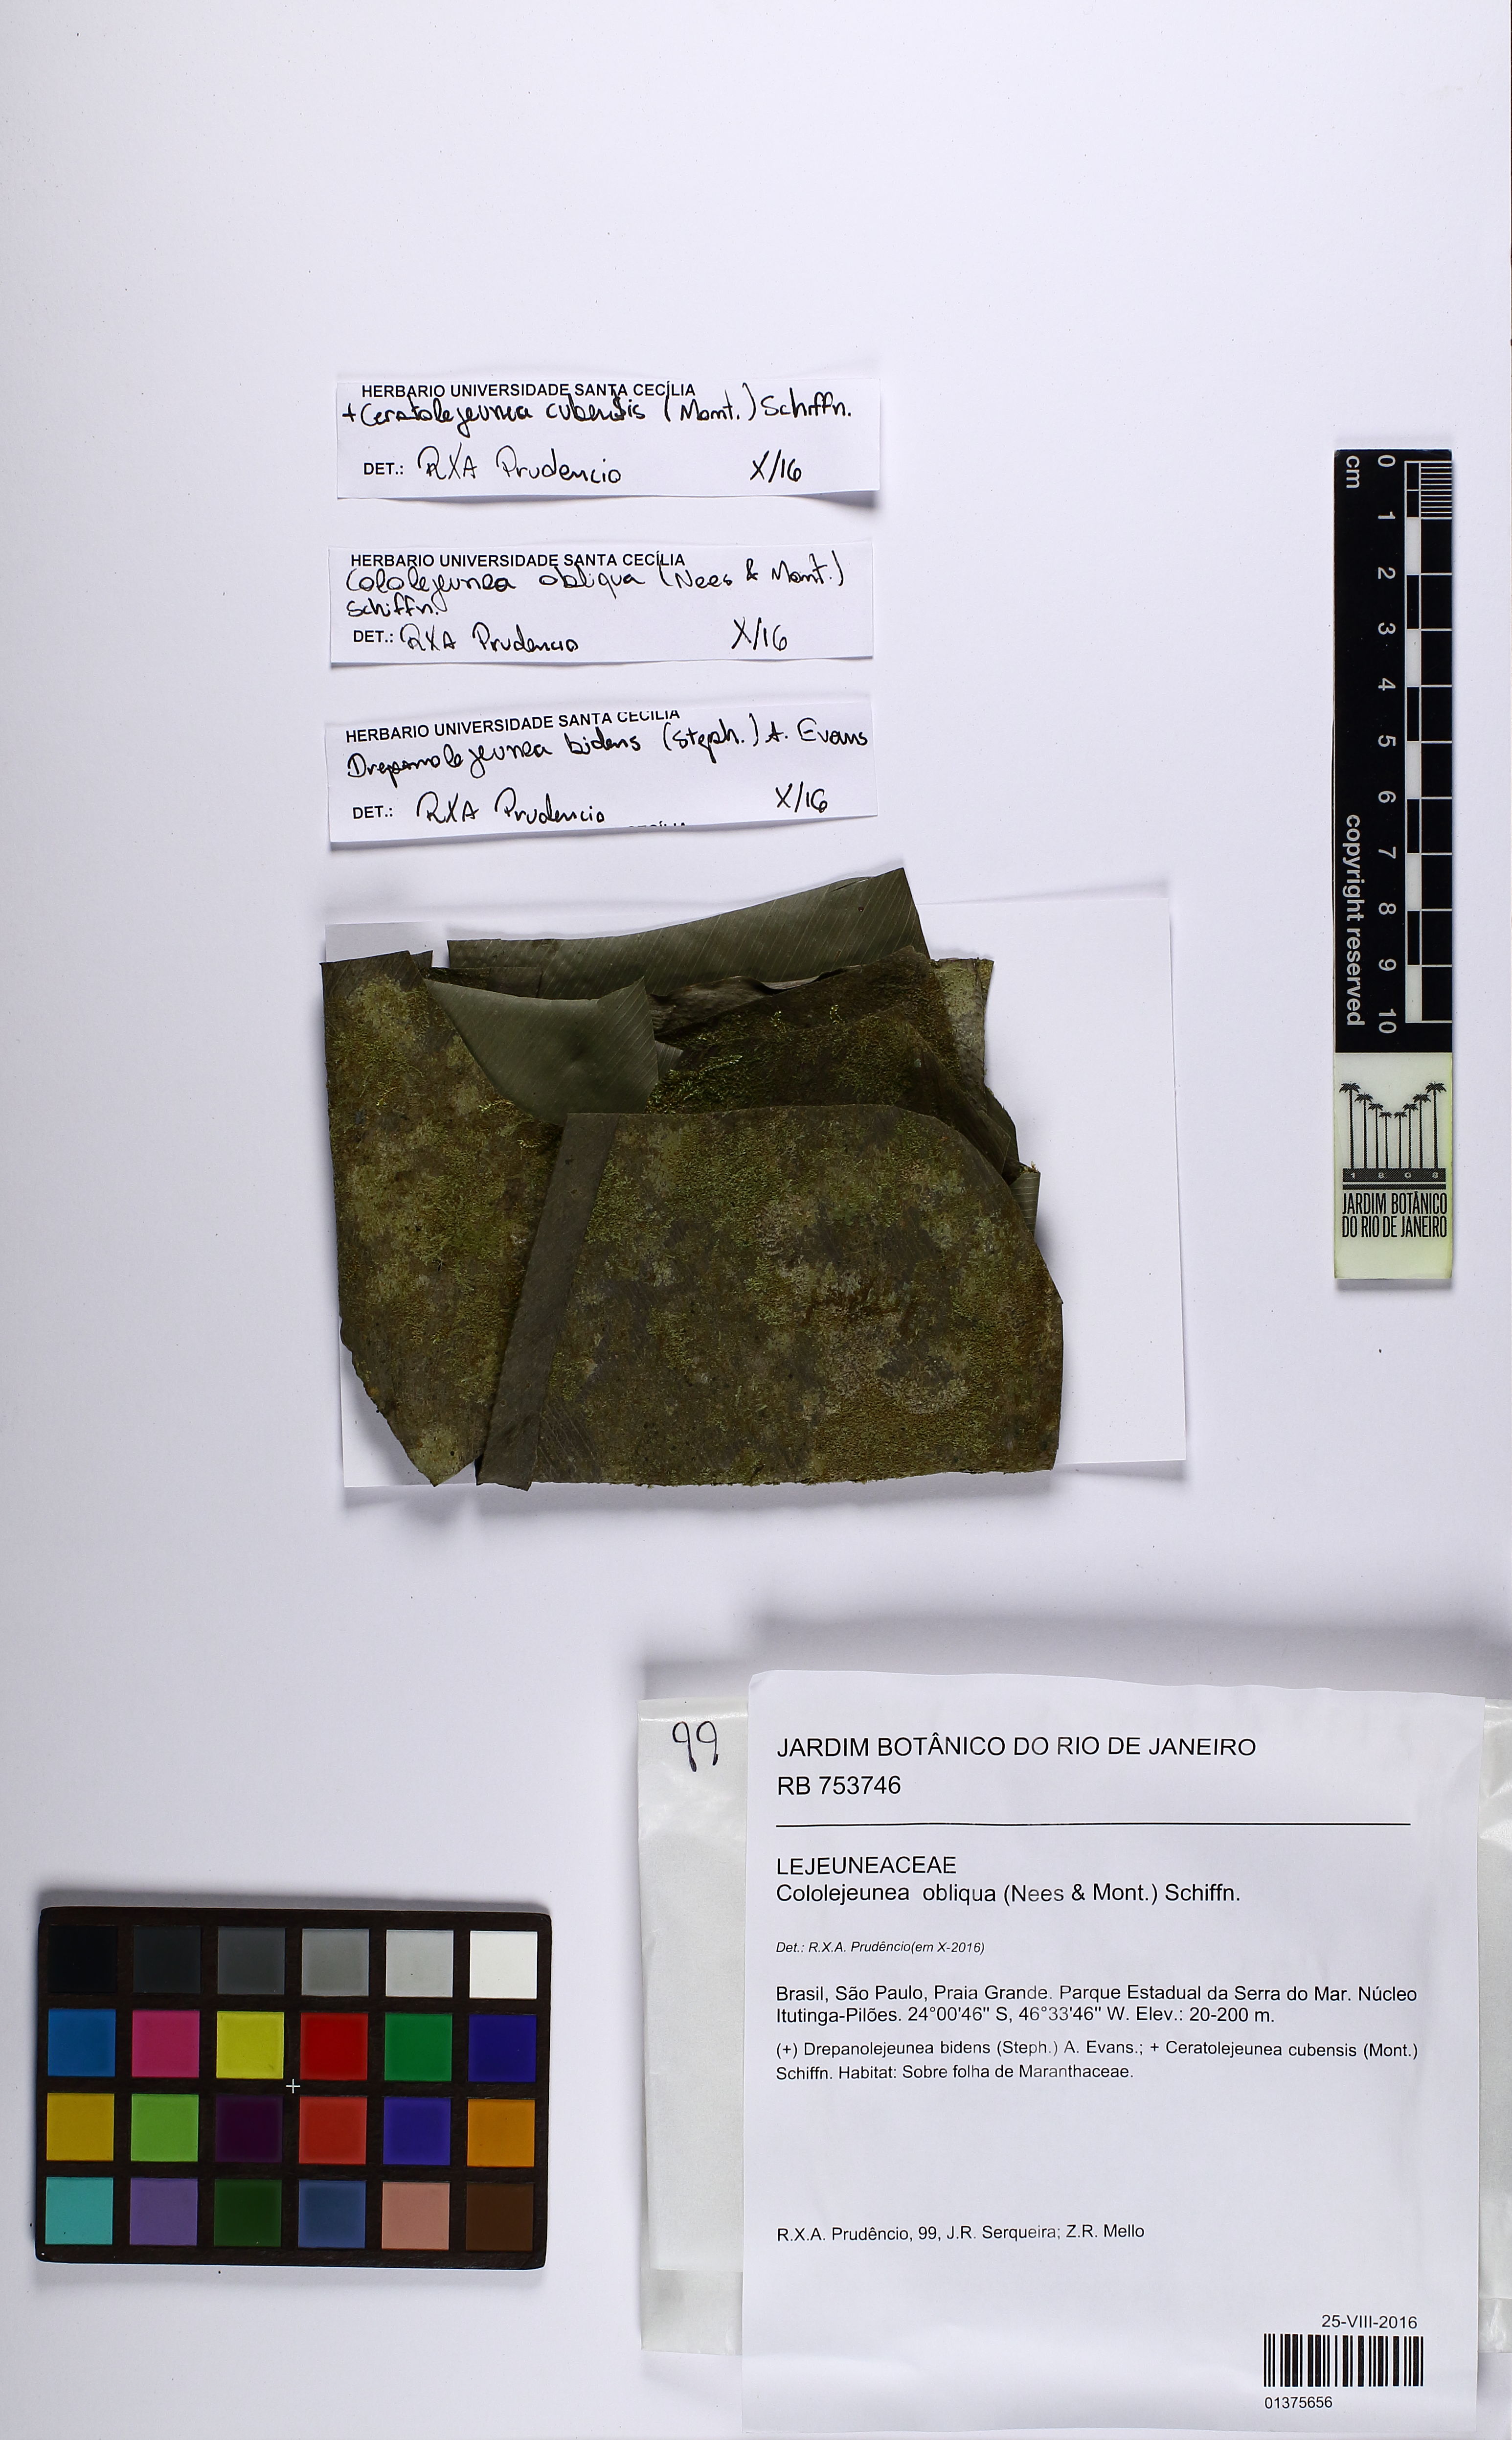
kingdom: Plantae
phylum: Marchantiophyta
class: Jungermanniopsida
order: Porellales
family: Lejeuneaceae
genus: Cololejeunea
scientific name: Cololejeunea obliqua
